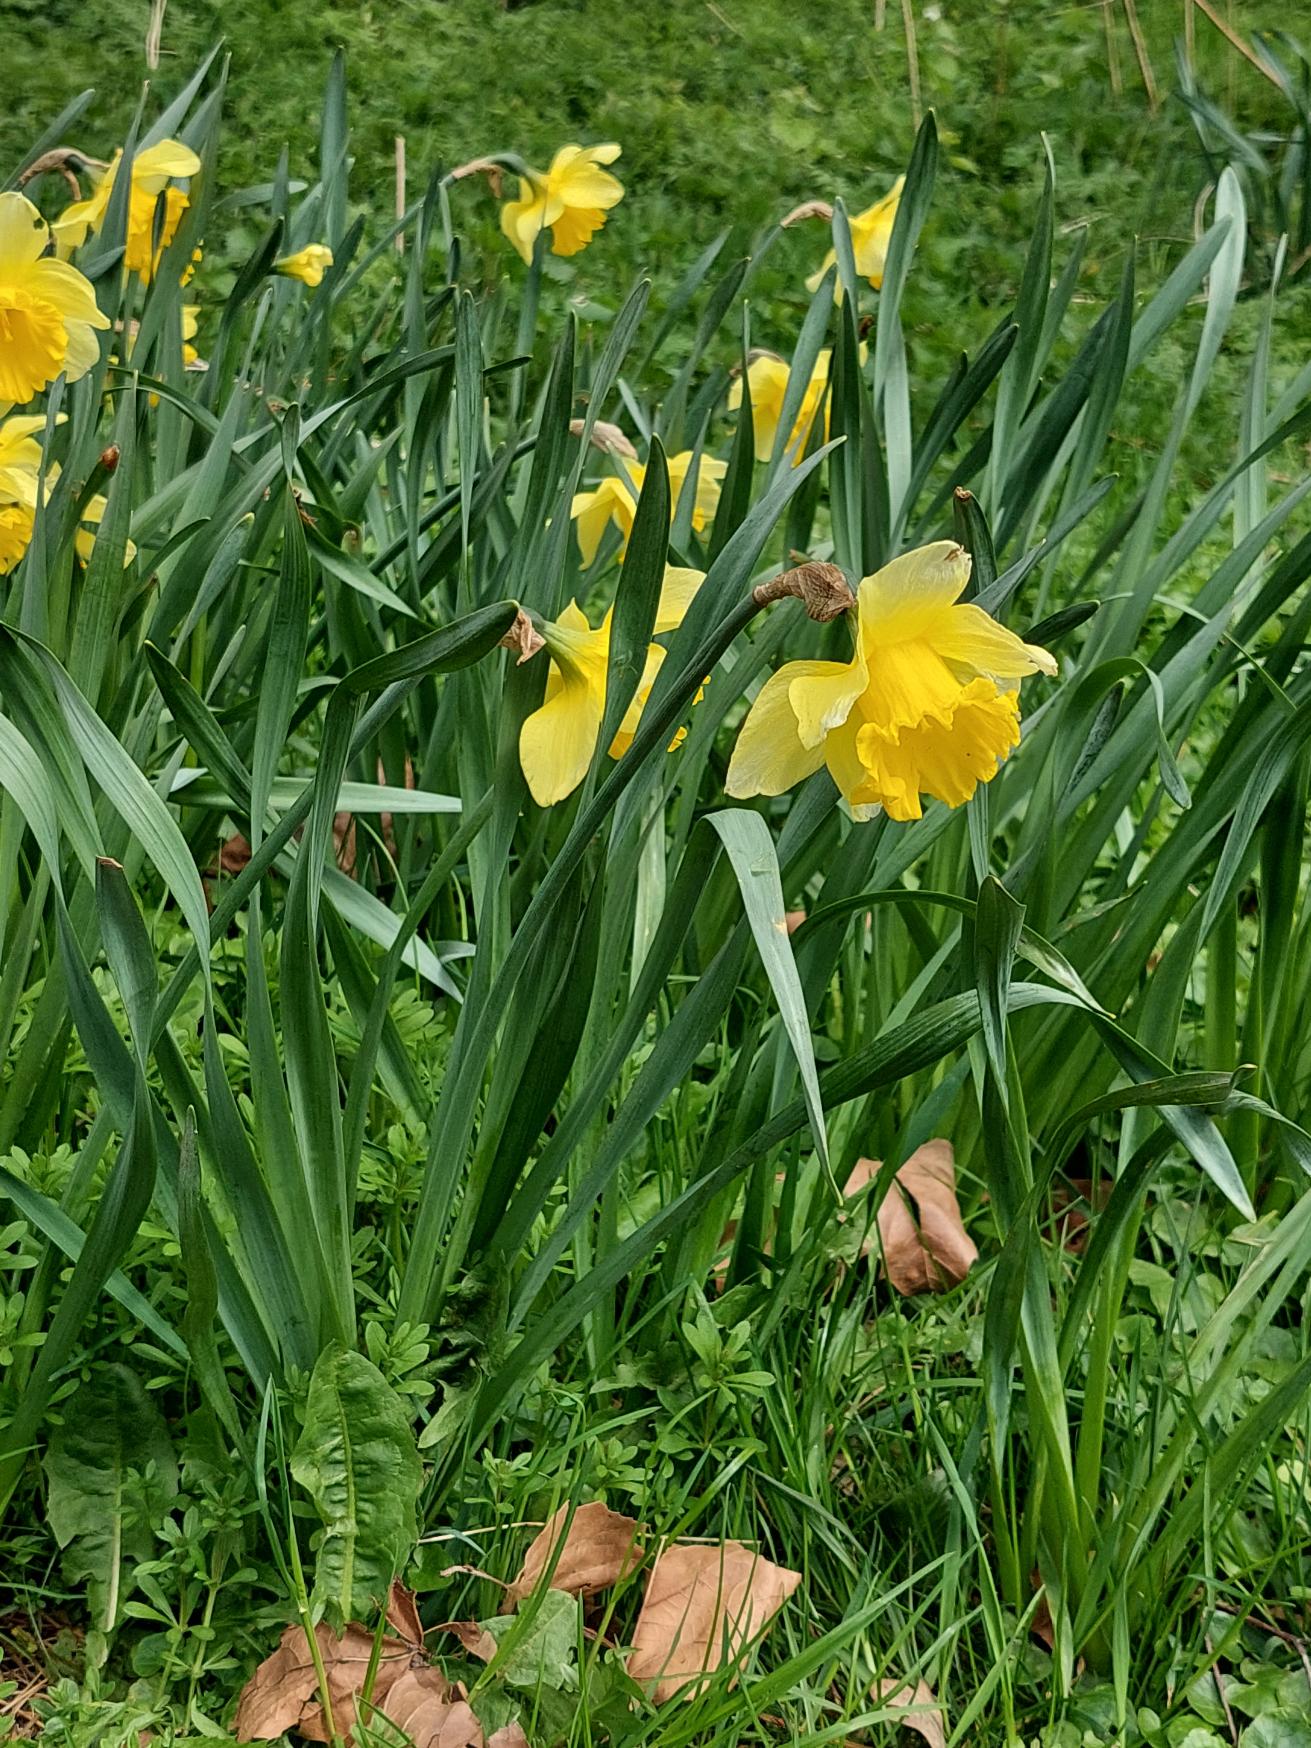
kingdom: Plantae
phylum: Tracheophyta
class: Liliopsida
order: Asparagales
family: Amaryllidaceae
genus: Narcissus
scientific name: Narcissus pseudonarcissus
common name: Påskelilje
